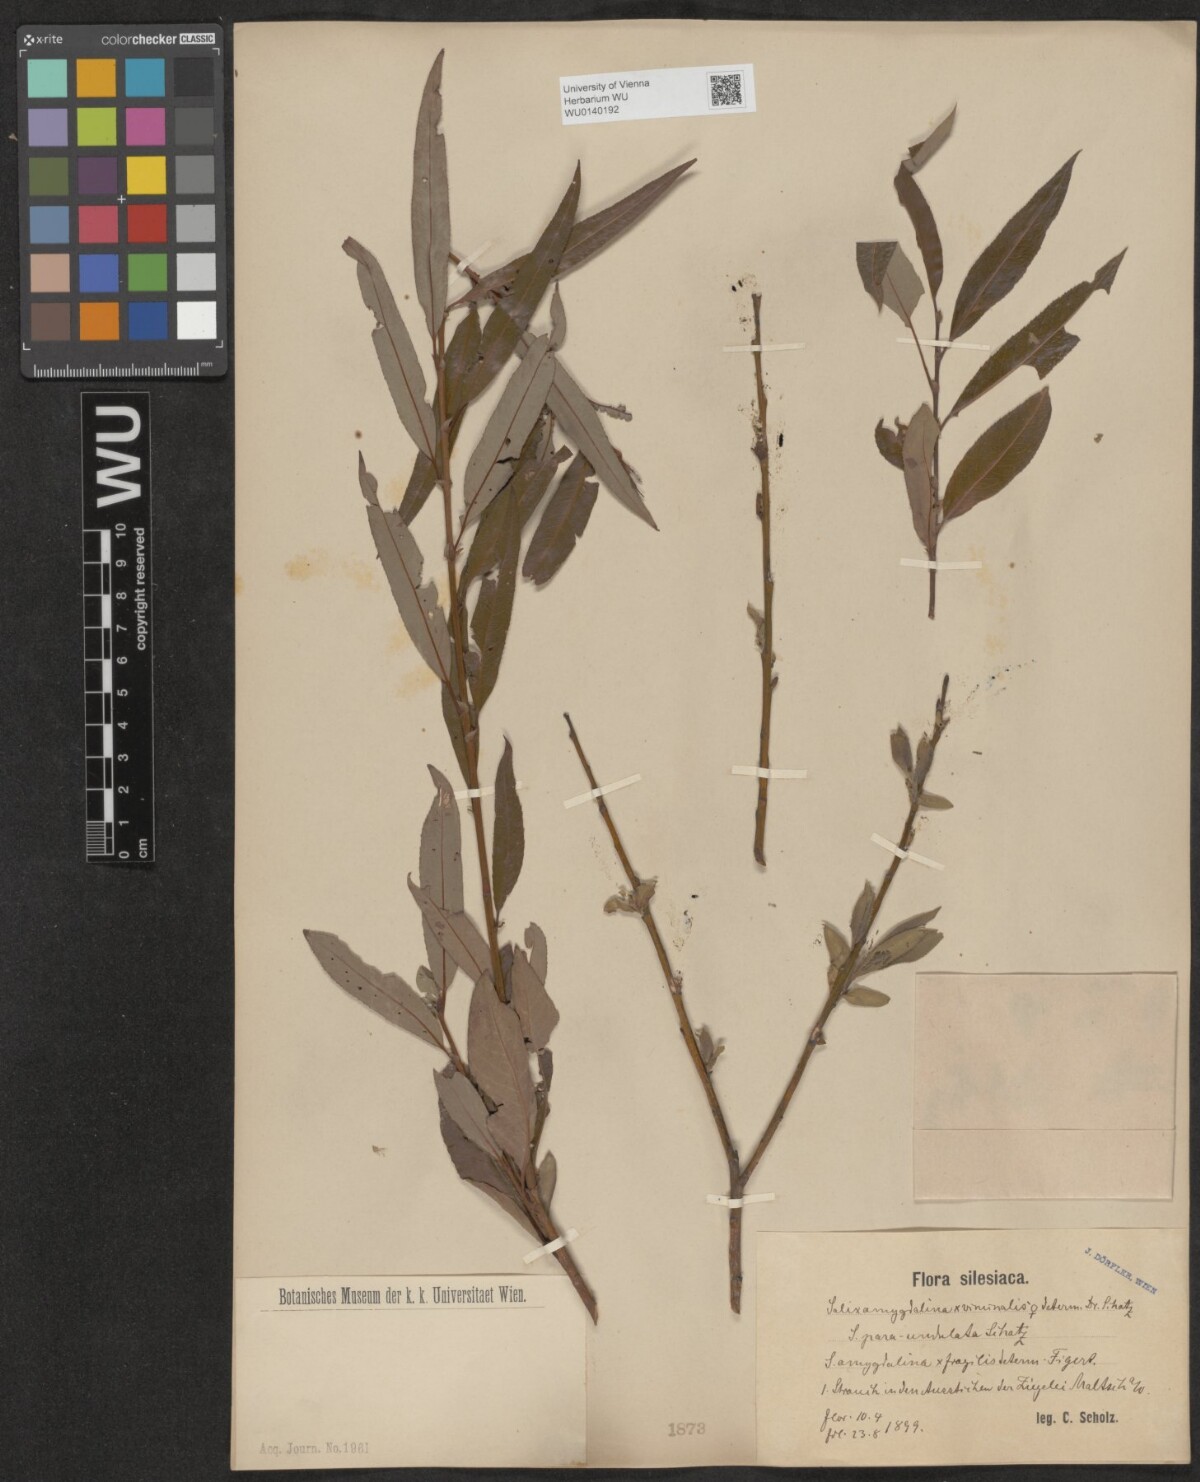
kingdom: Plantae
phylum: Tracheophyta
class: Magnoliopsida
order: Malpighiales
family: Salicaceae
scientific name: Salicaceae
